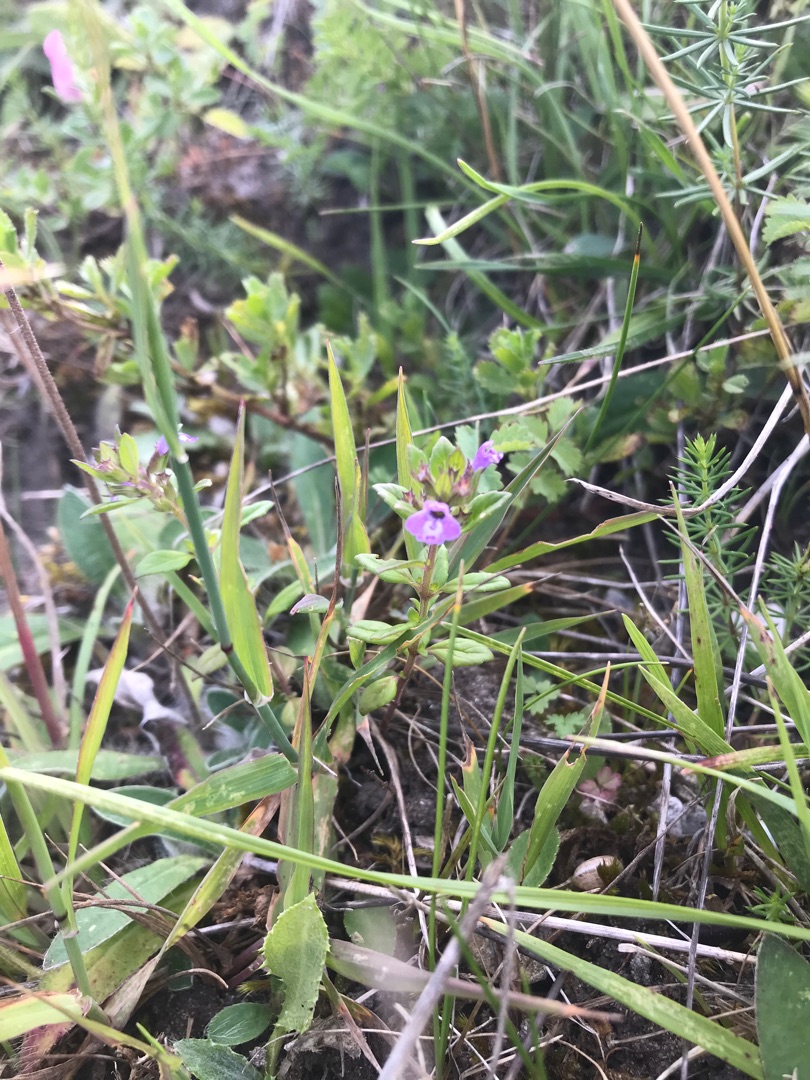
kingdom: Plantae
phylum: Tracheophyta
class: Magnoliopsida
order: Lamiales
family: Lamiaceae
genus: Clinopodium
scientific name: Clinopodium acinos
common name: Voldtimian
